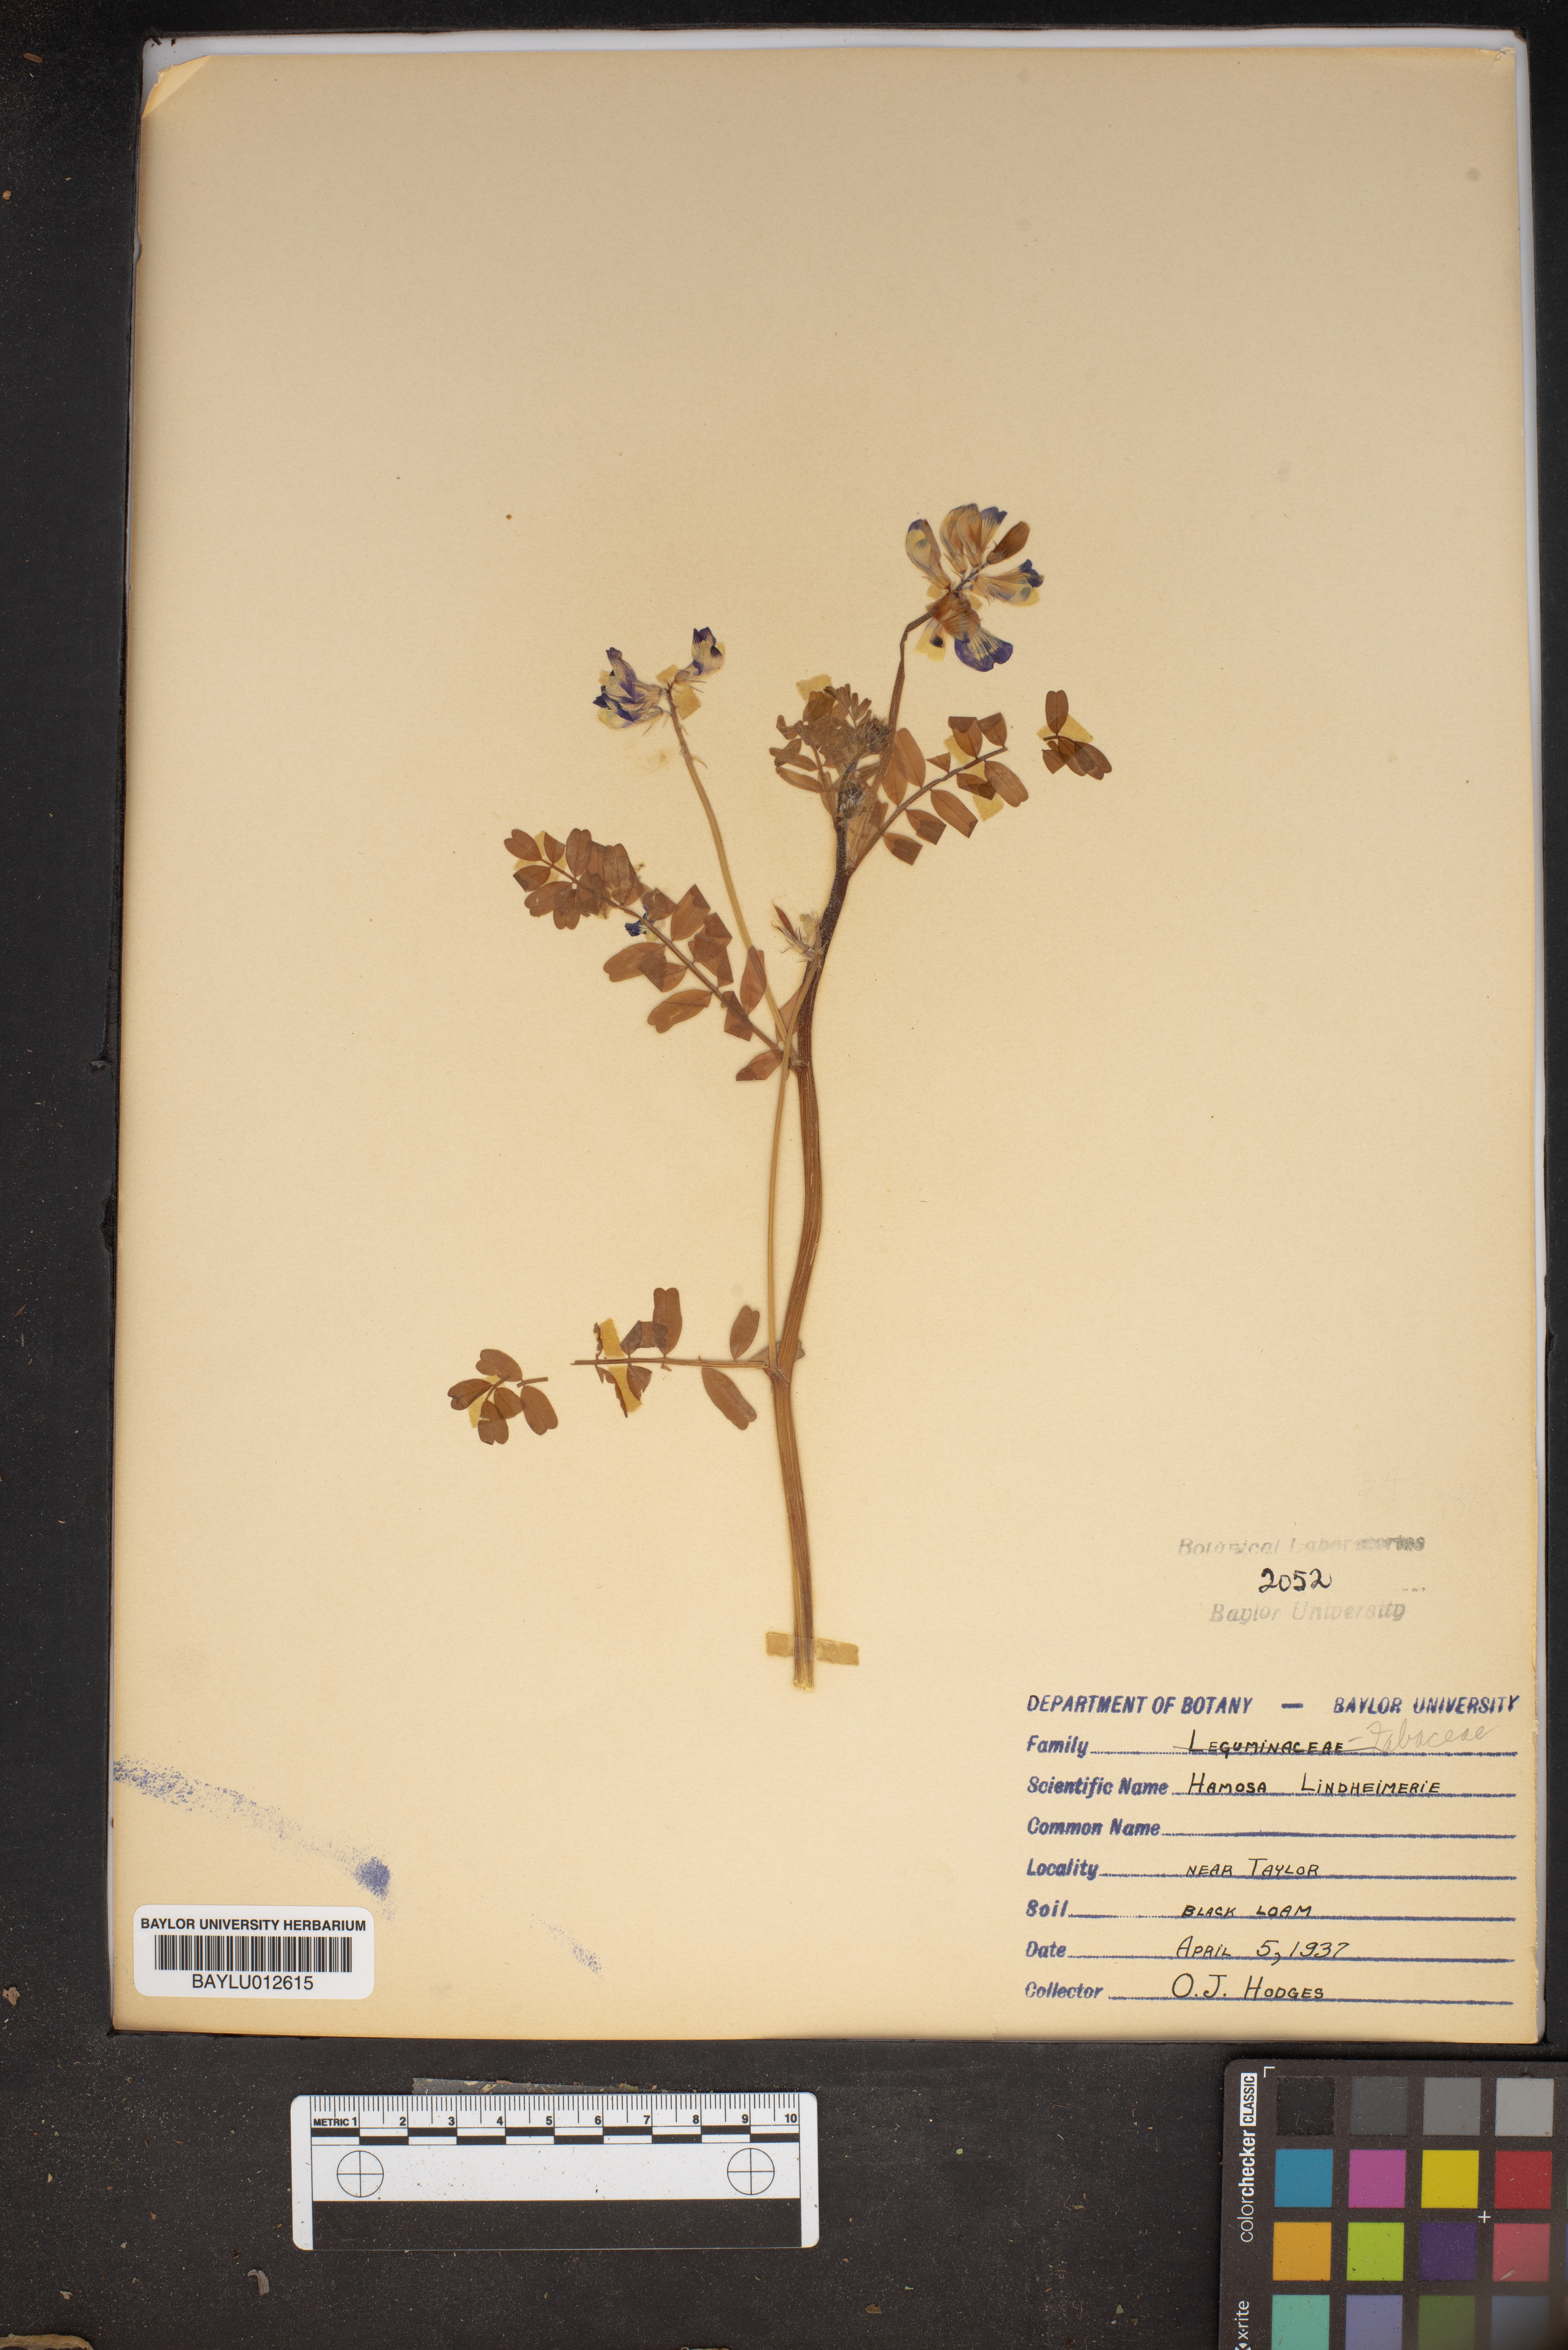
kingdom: Plantae
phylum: Tracheophyta
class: Magnoliopsida
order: Fabales
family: Fabaceae
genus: Astragalus
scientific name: Astragalus lindheimeri
